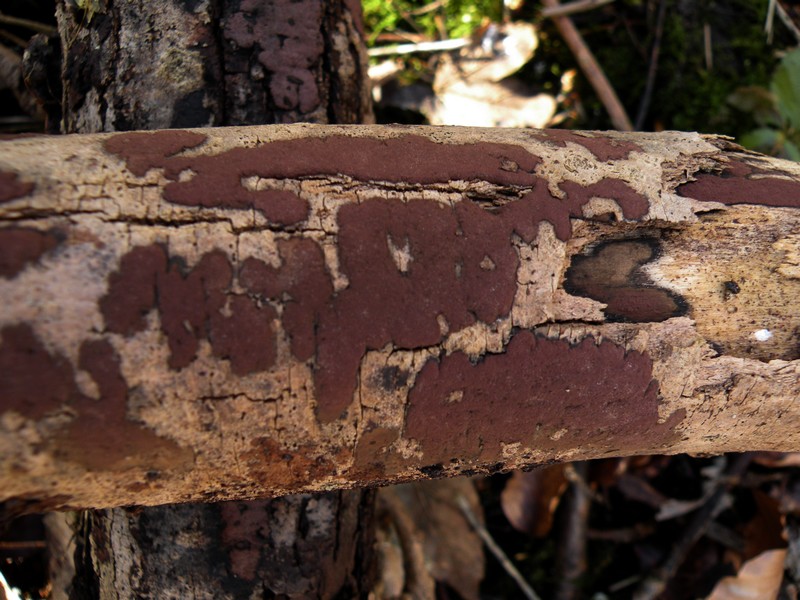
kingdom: Fungi
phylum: Ascomycota
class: Sordariomycetes
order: Xylariales
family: Hypoxylaceae
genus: Hypoxylon
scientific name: Hypoxylon petriniae
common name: nedsænket kulbær
